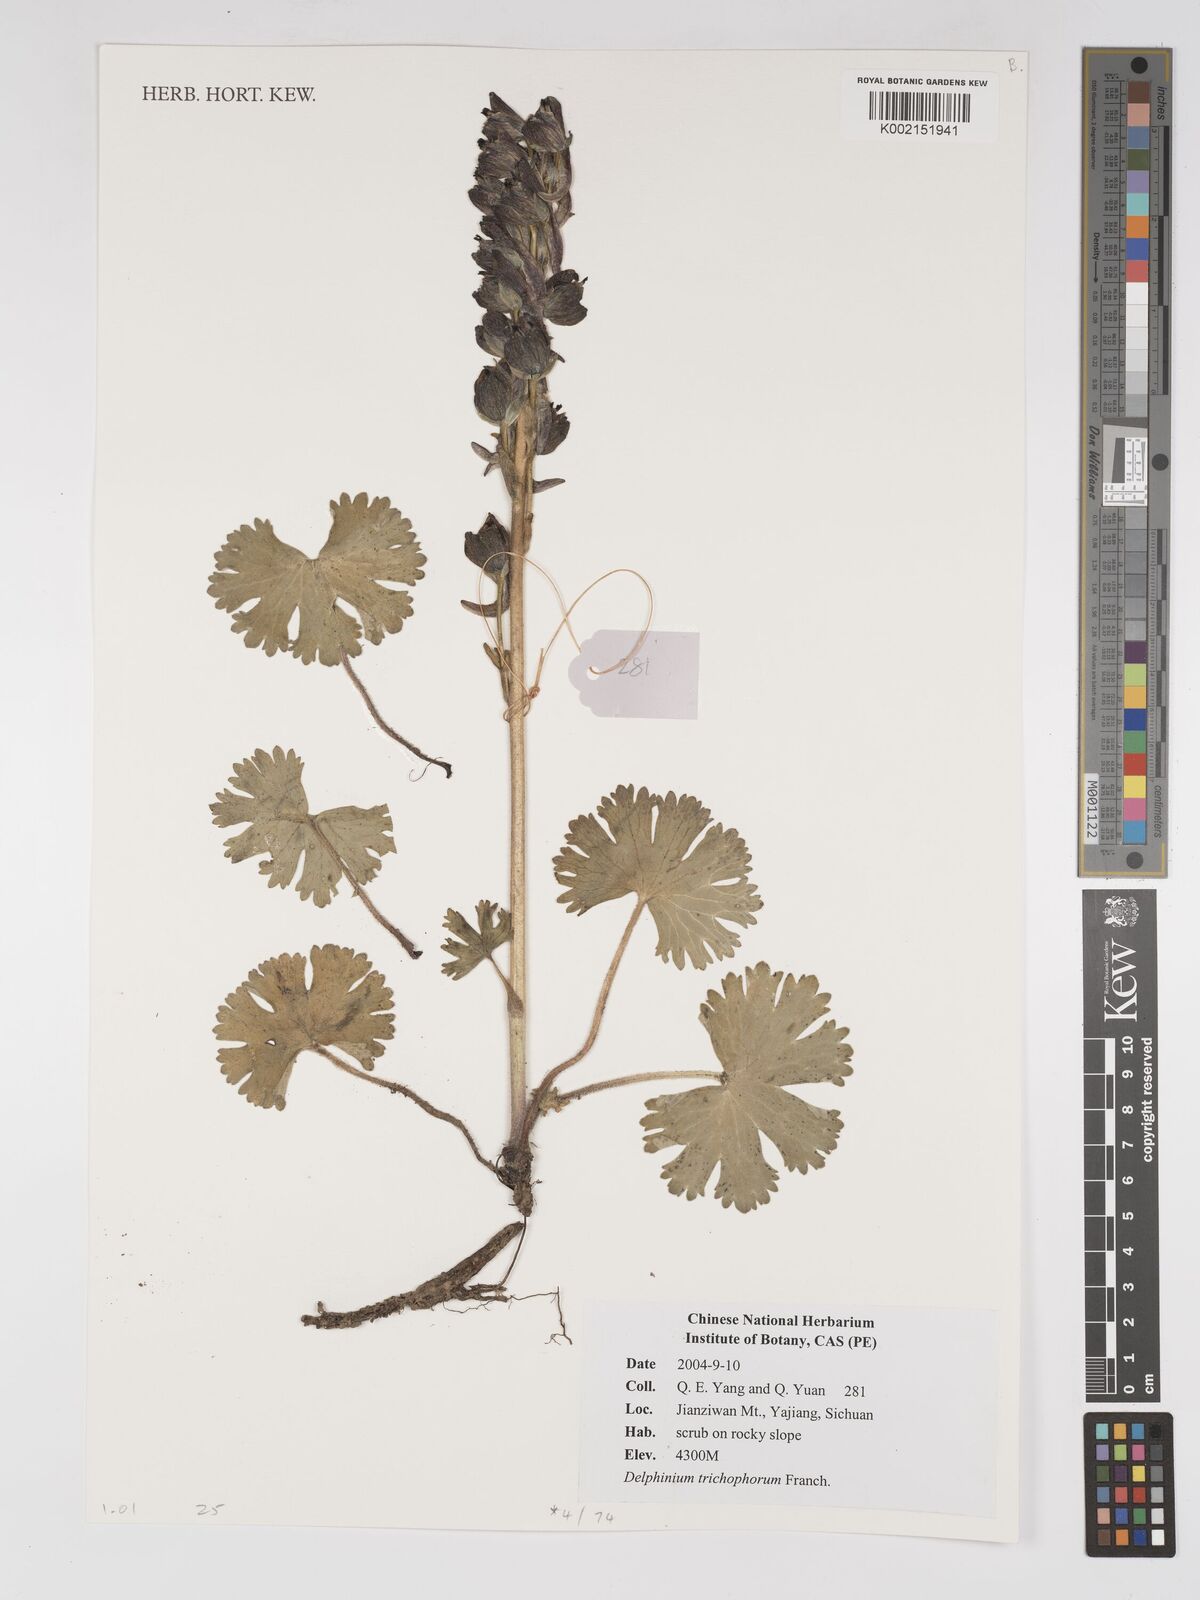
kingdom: Plantae
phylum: Tracheophyta
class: Magnoliopsida
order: Ranunculales
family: Ranunculaceae
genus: Delphinium
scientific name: Delphinium trichophorum
